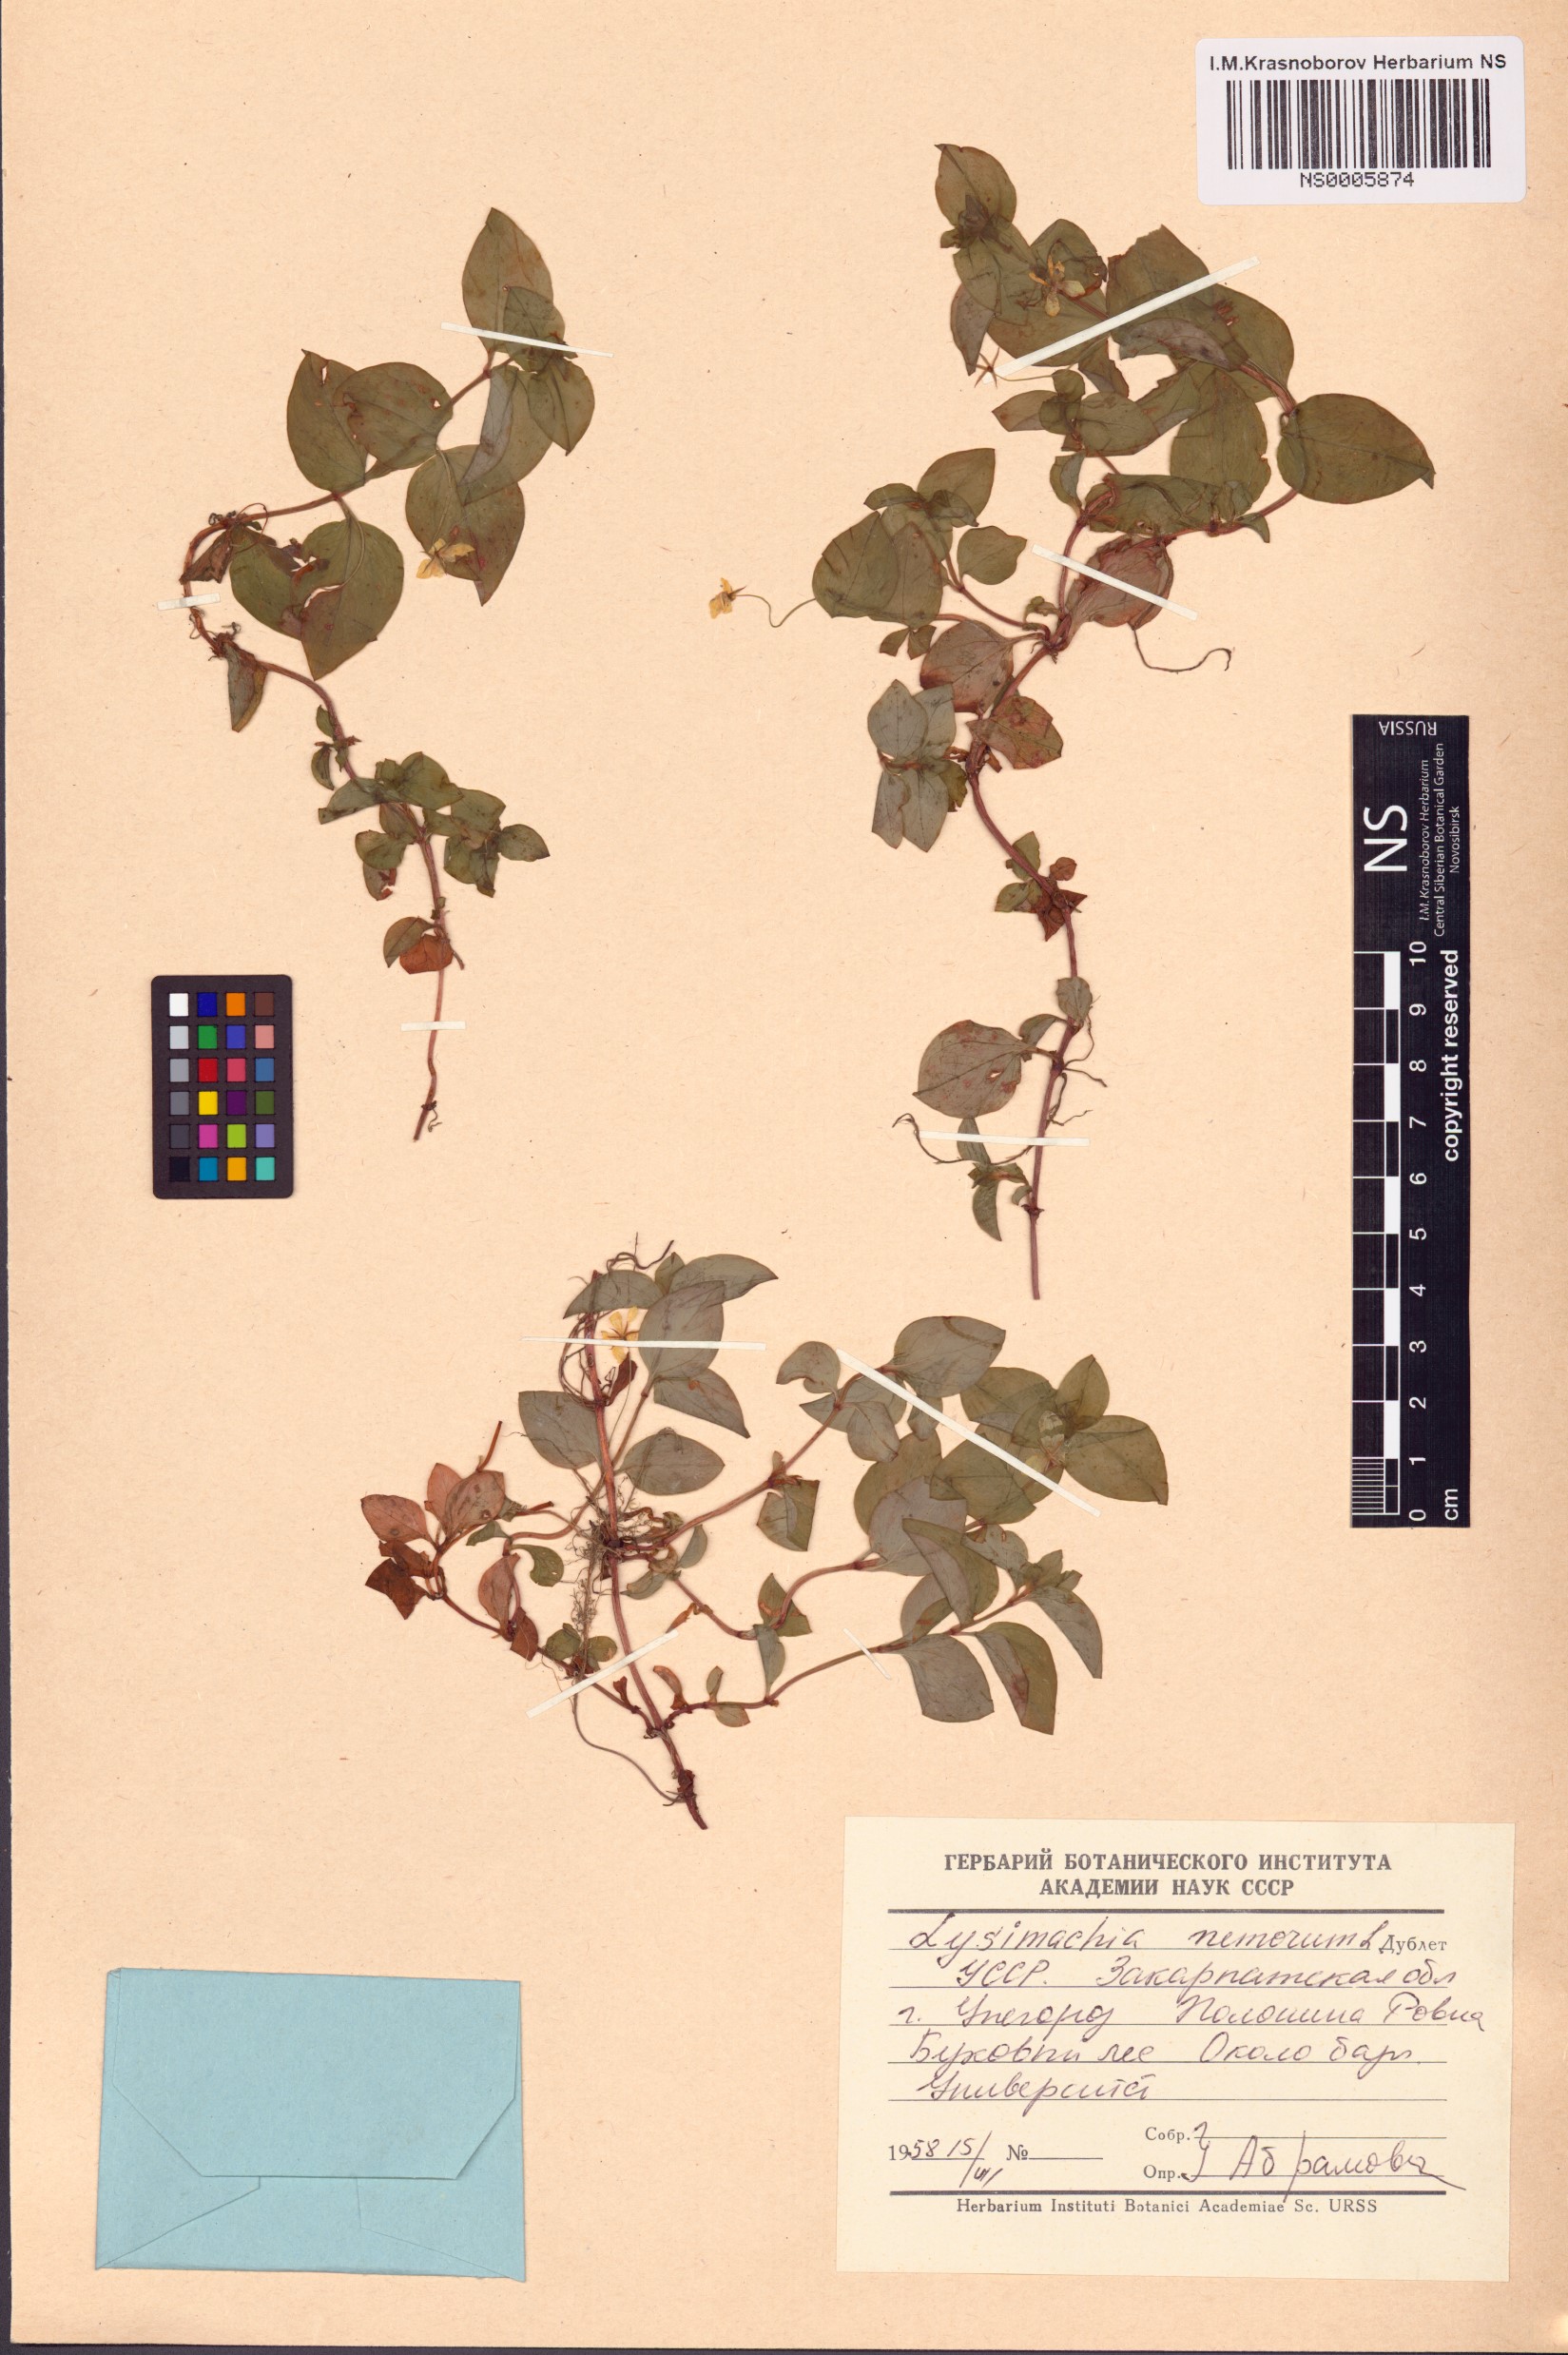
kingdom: Plantae
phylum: Tracheophyta
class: Magnoliopsida
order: Ericales
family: Primulaceae
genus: Lysimachia
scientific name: Lysimachia nemorum
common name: Yellow pimpernel
